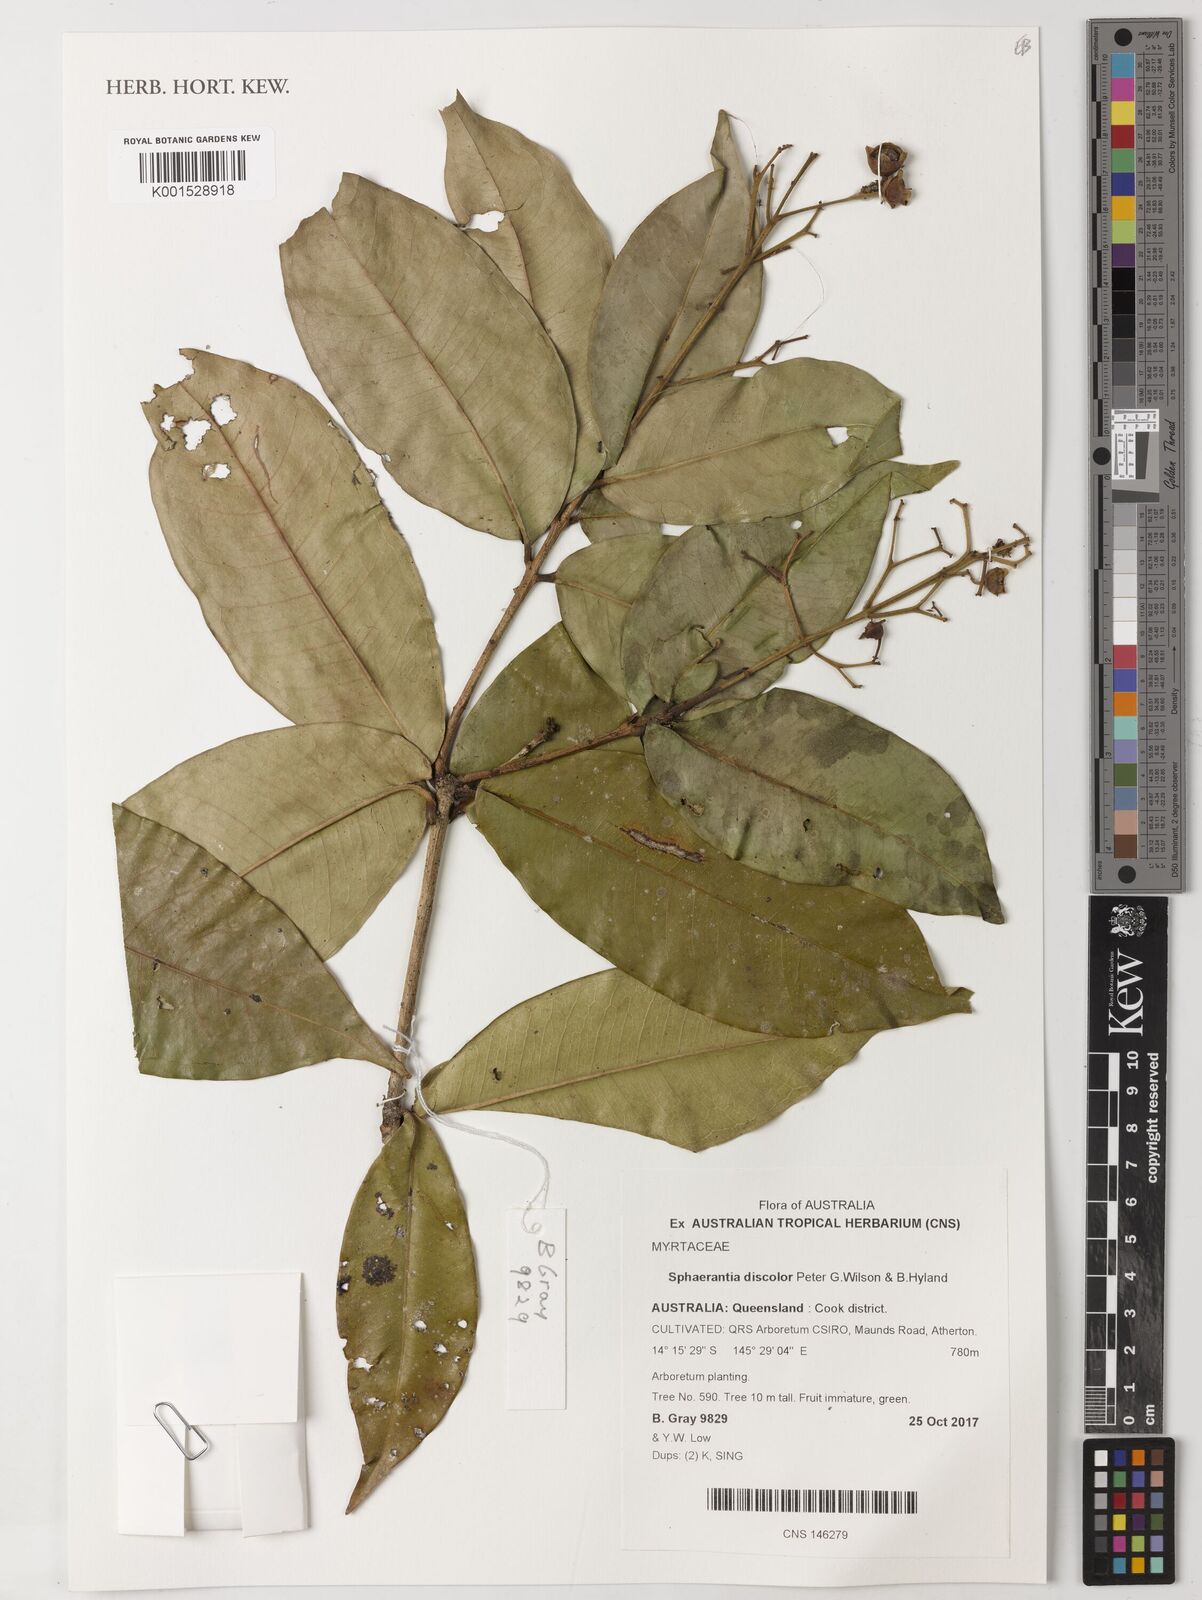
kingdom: Plantae
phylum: Tracheophyta
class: Magnoliopsida
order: Myrtales
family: Myrtaceae
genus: Sphaerantia
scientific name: Sphaerantia discolor
